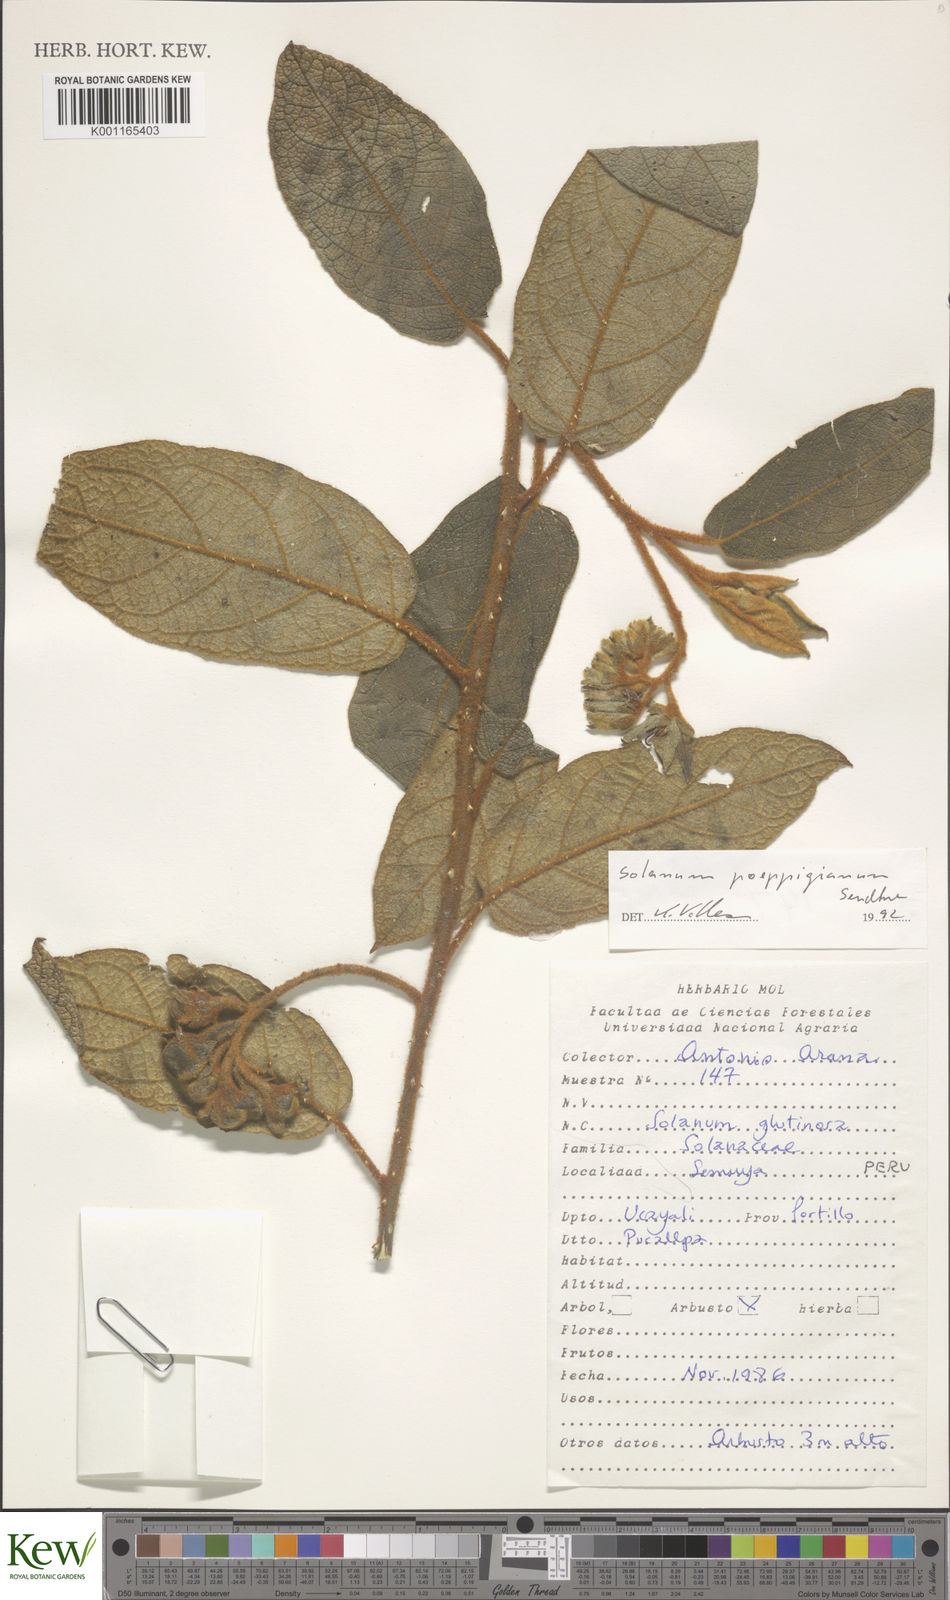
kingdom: Plantae
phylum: Tracheophyta
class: Magnoliopsida
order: Solanales
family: Solanaceae
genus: Solanum
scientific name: Solanum valdiviense
